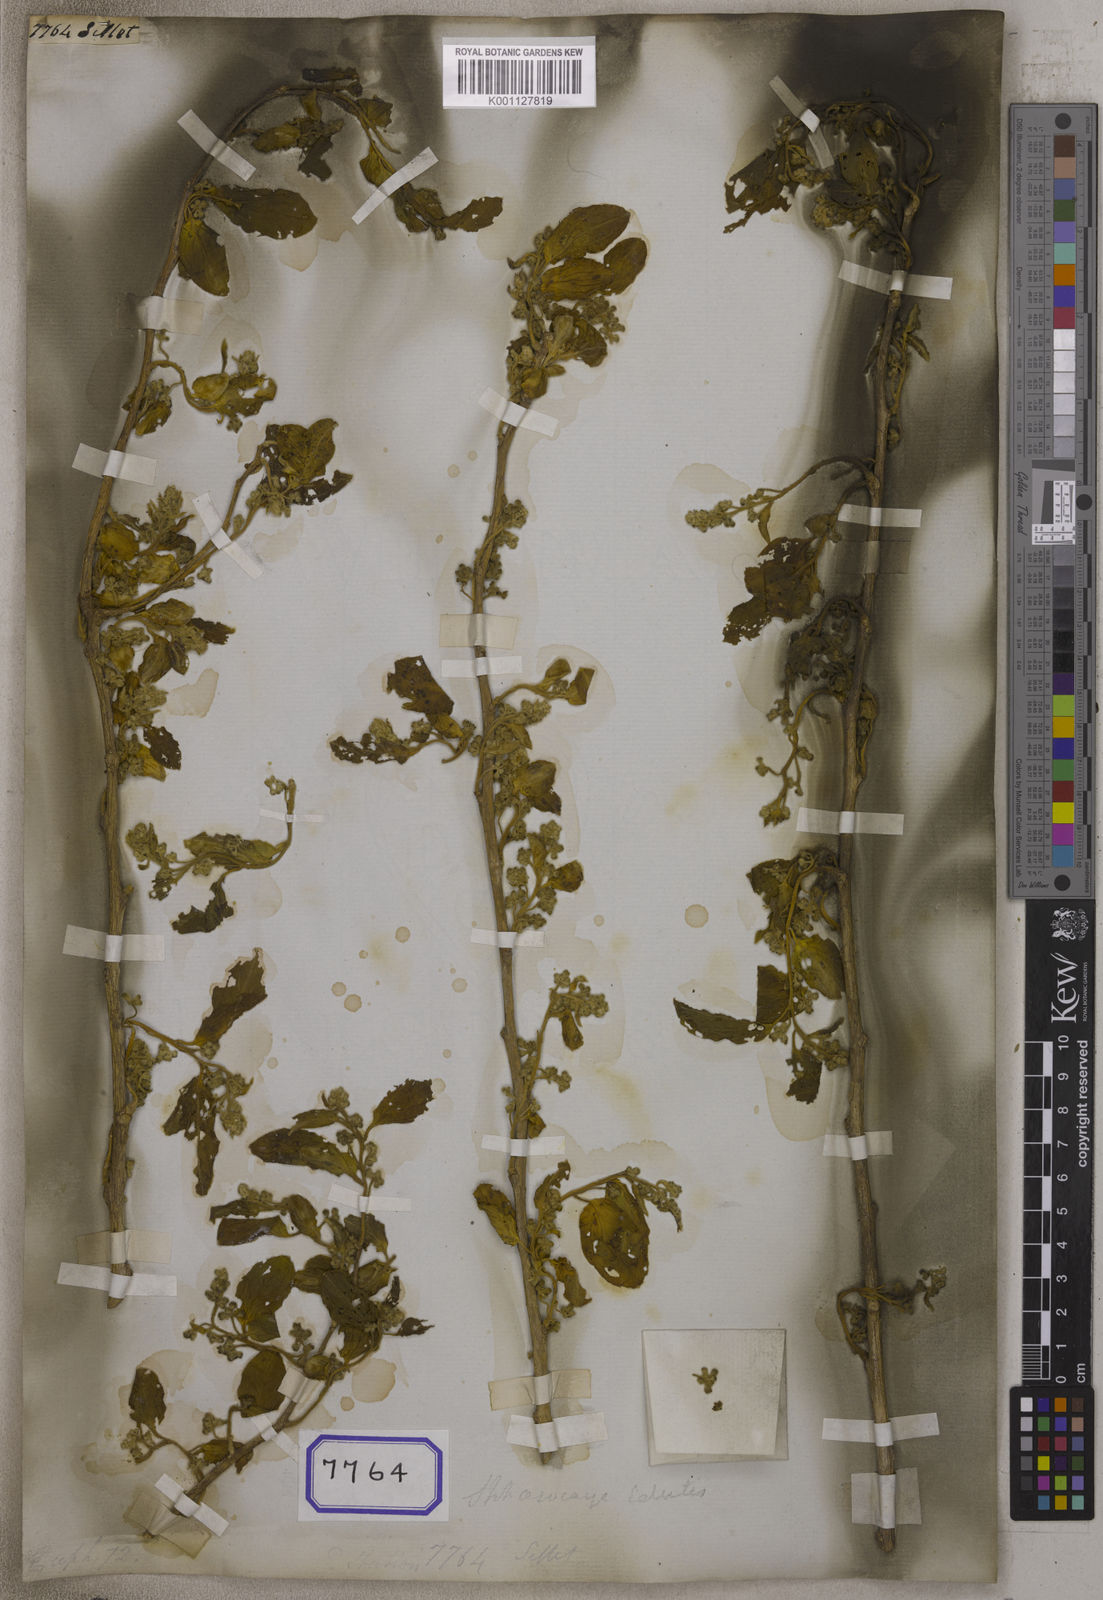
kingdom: Plantae
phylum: Tracheophyta
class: Magnoliopsida
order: Malpighiales
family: Euphorbiaceae
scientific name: Euphorbiaceae
